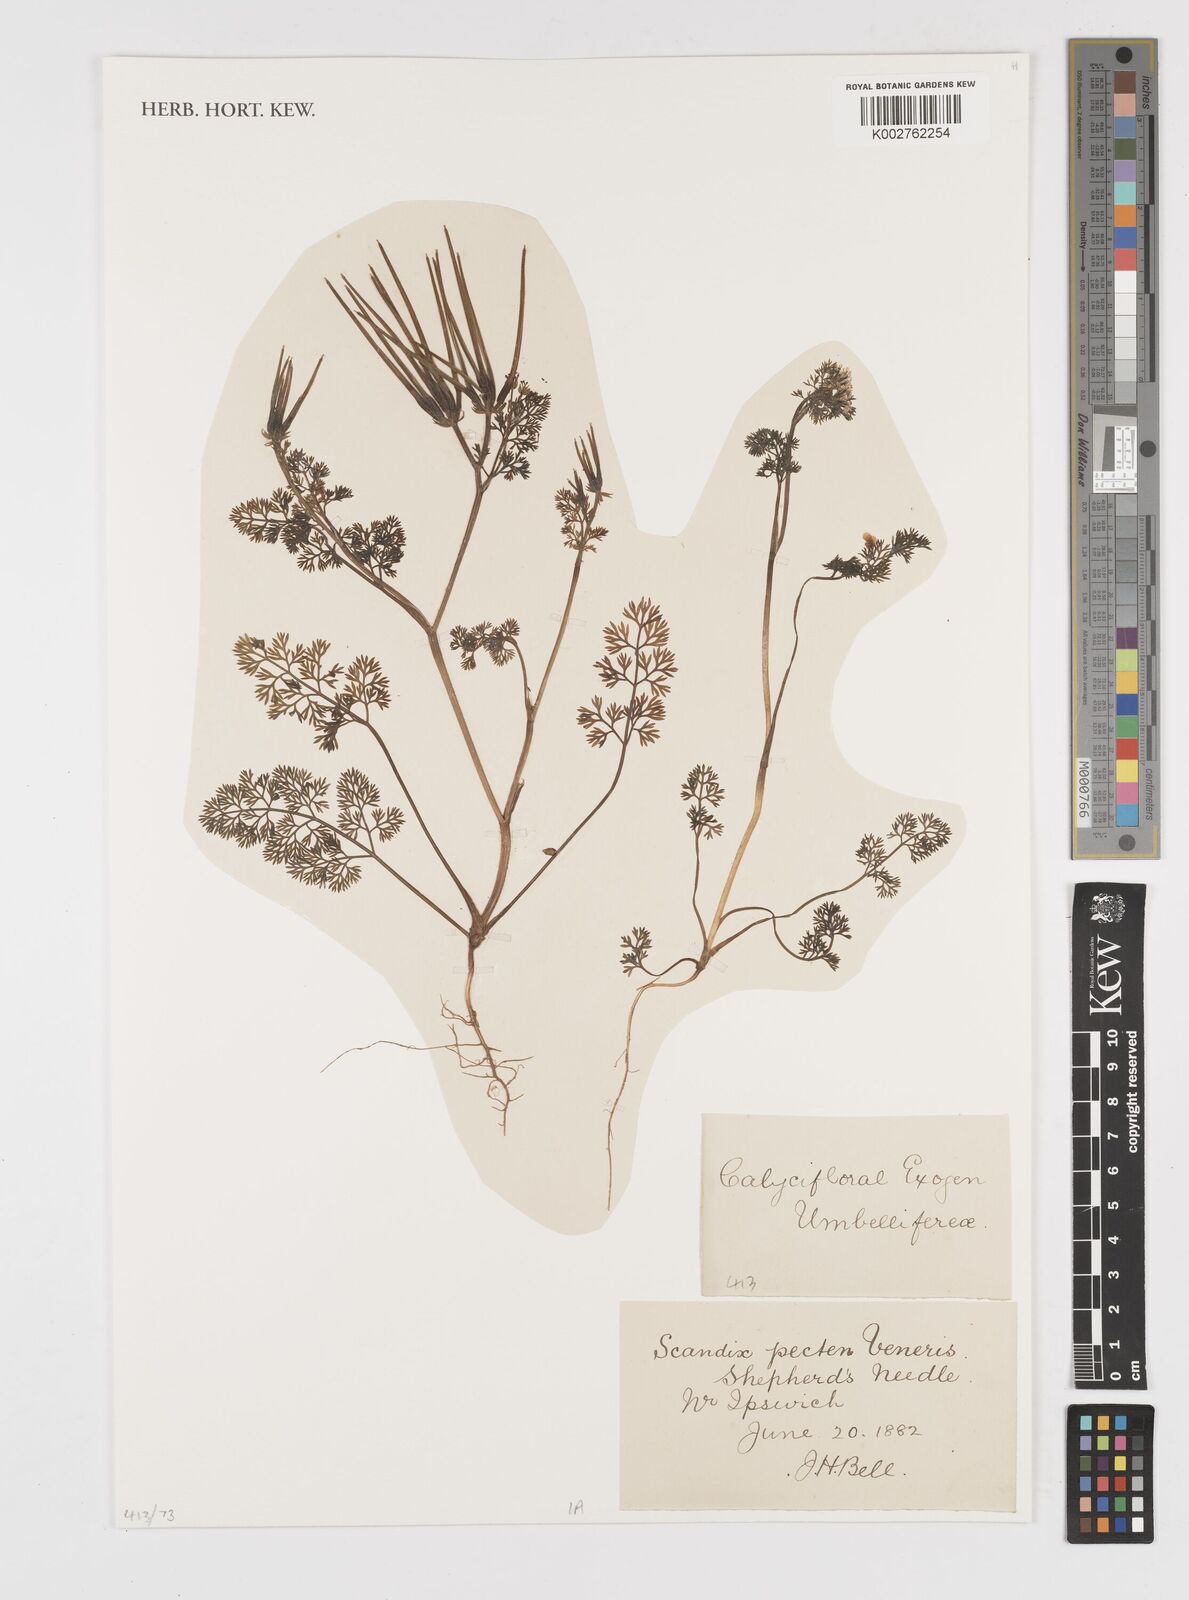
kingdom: Plantae
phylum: Tracheophyta
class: Magnoliopsida
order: Apiales
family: Apiaceae
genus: Scandix
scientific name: Scandix pecten-veneris
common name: Shepherd's-needle
